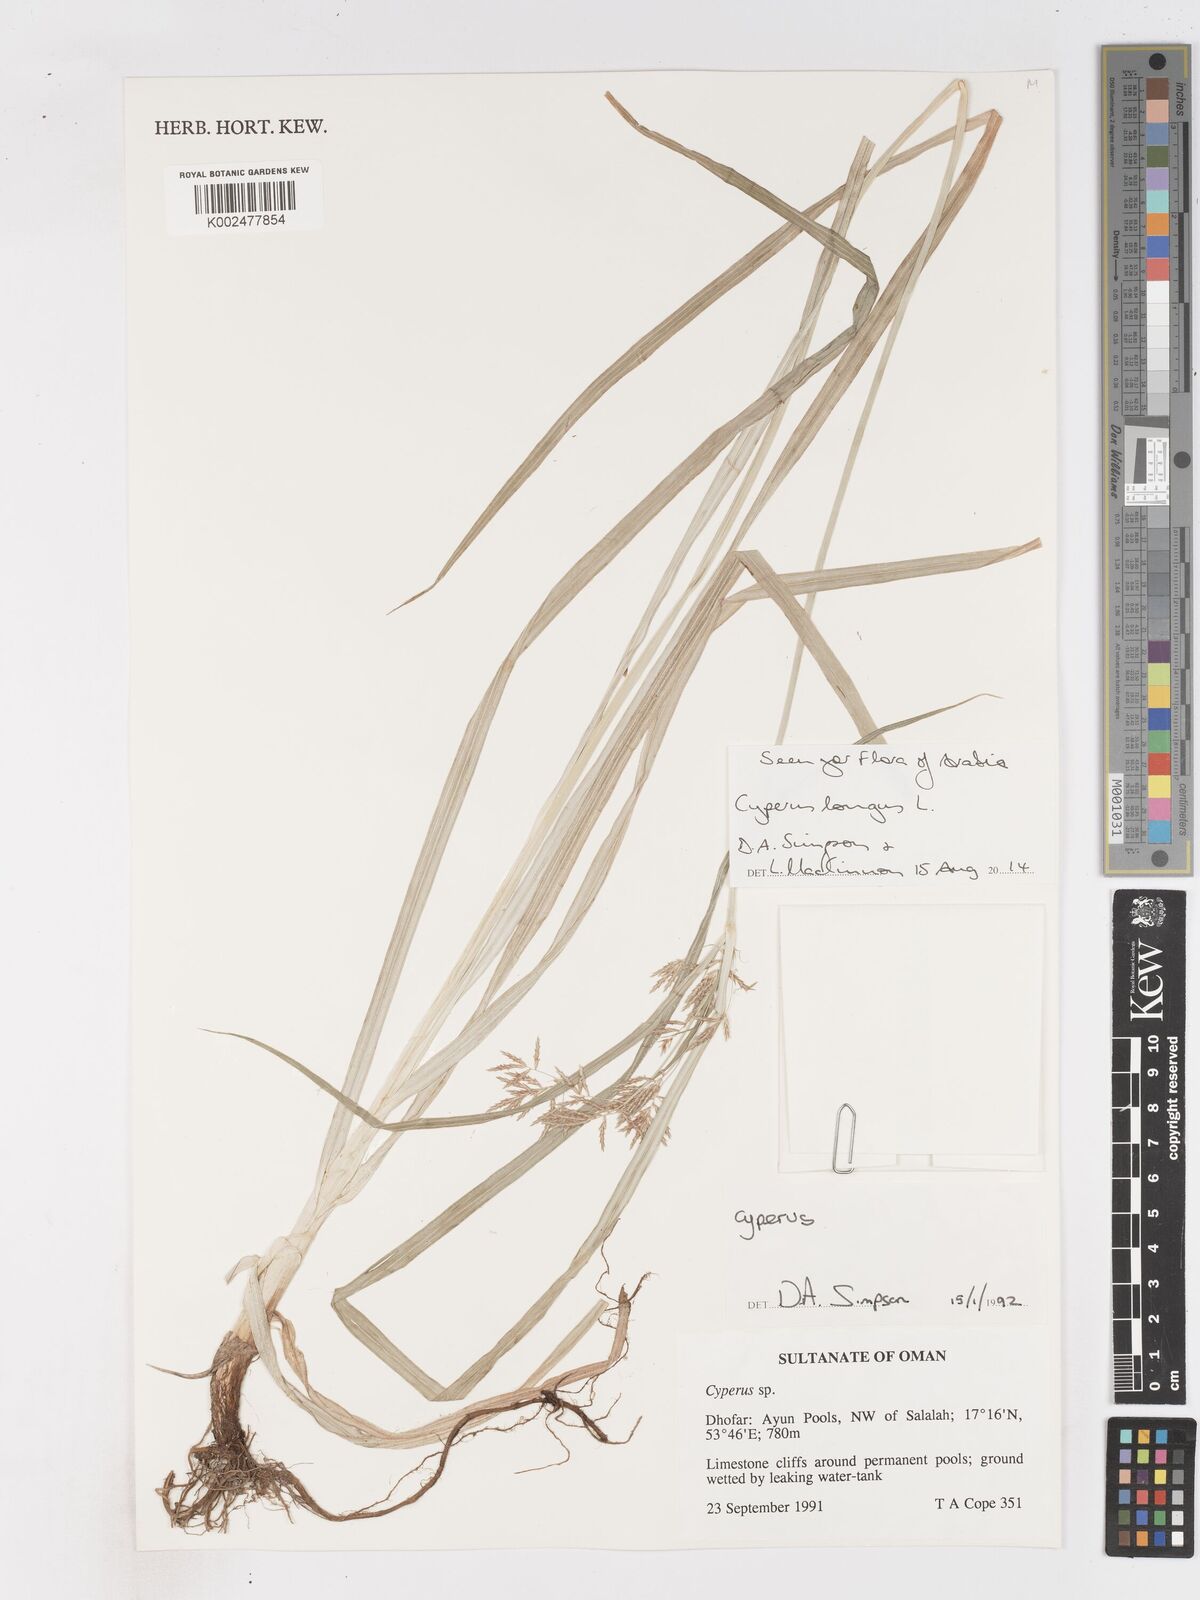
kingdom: Plantae
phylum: Tracheophyta
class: Liliopsida
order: Poales
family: Cyperaceae
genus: Cyperus
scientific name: Cyperus longus
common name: Galingale
